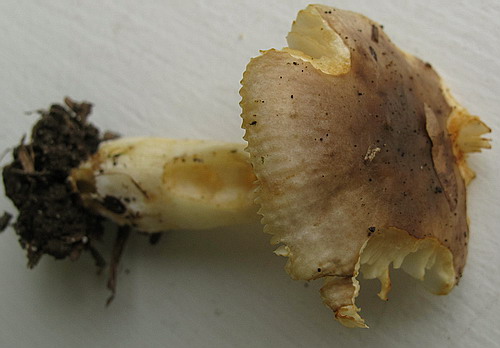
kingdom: Fungi
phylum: Basidiomycota
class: Agaricomycetes
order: Russulales
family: Russulaceae
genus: Russula
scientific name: Russula puellaris
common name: gulstokket skørhat
